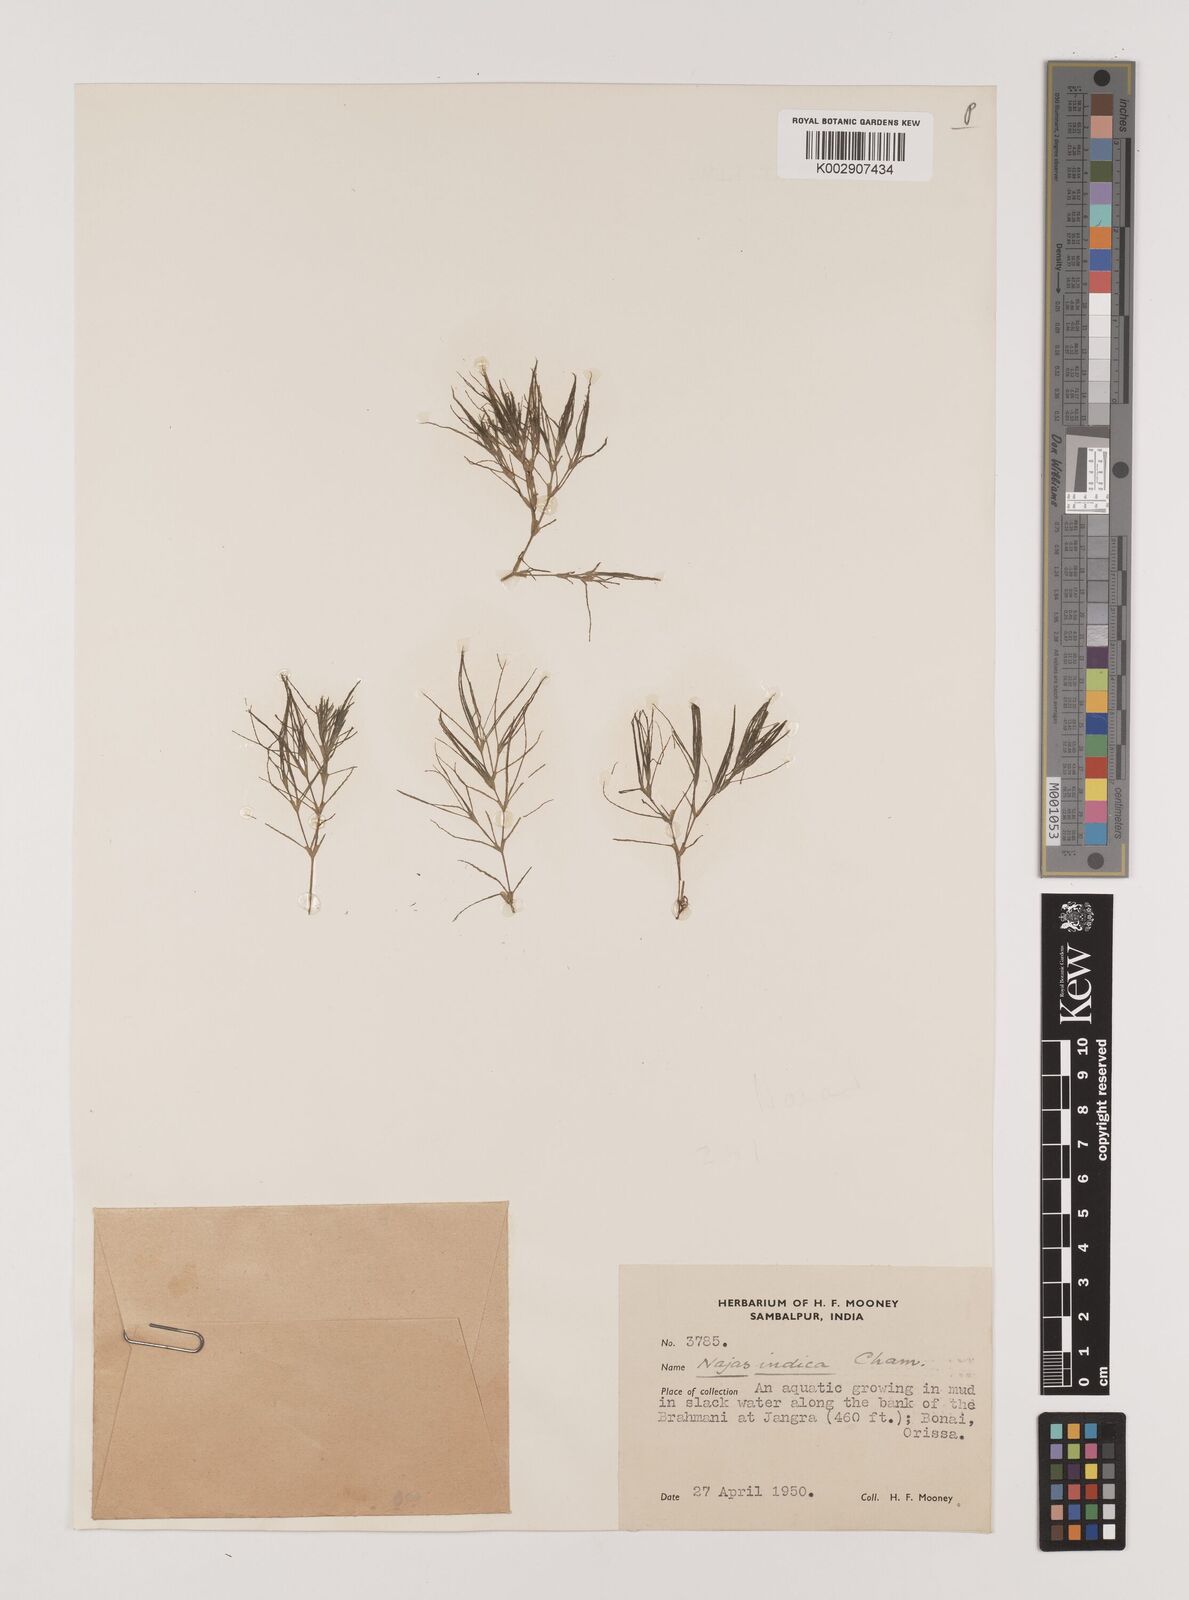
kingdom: Plantae
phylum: Tracheophyta
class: Liliopsida
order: Alismatales
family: Hydrocharitaceae
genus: Najas
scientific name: Najas indica
